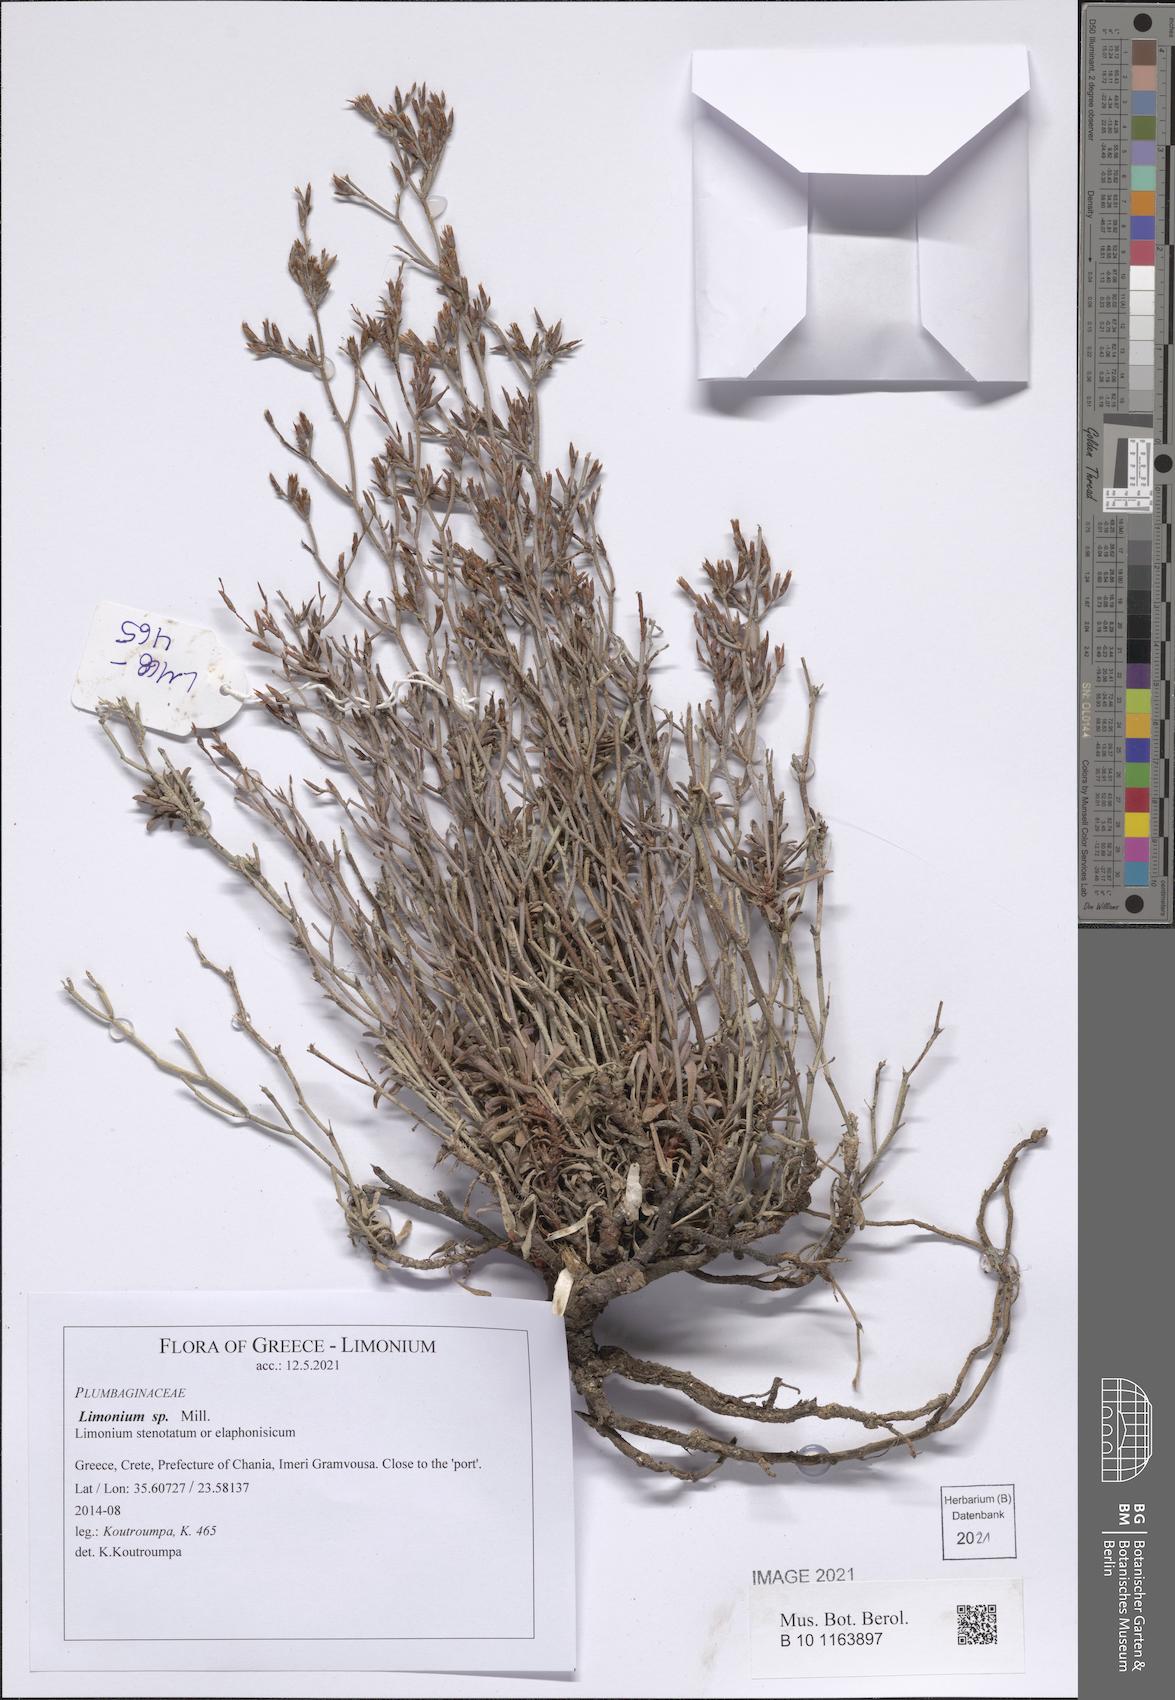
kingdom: Plantae
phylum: Tracheophyta
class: Magnoliopsida
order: Caryophyllales
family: Plumbaginaceae
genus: Limonium
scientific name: Limonium
